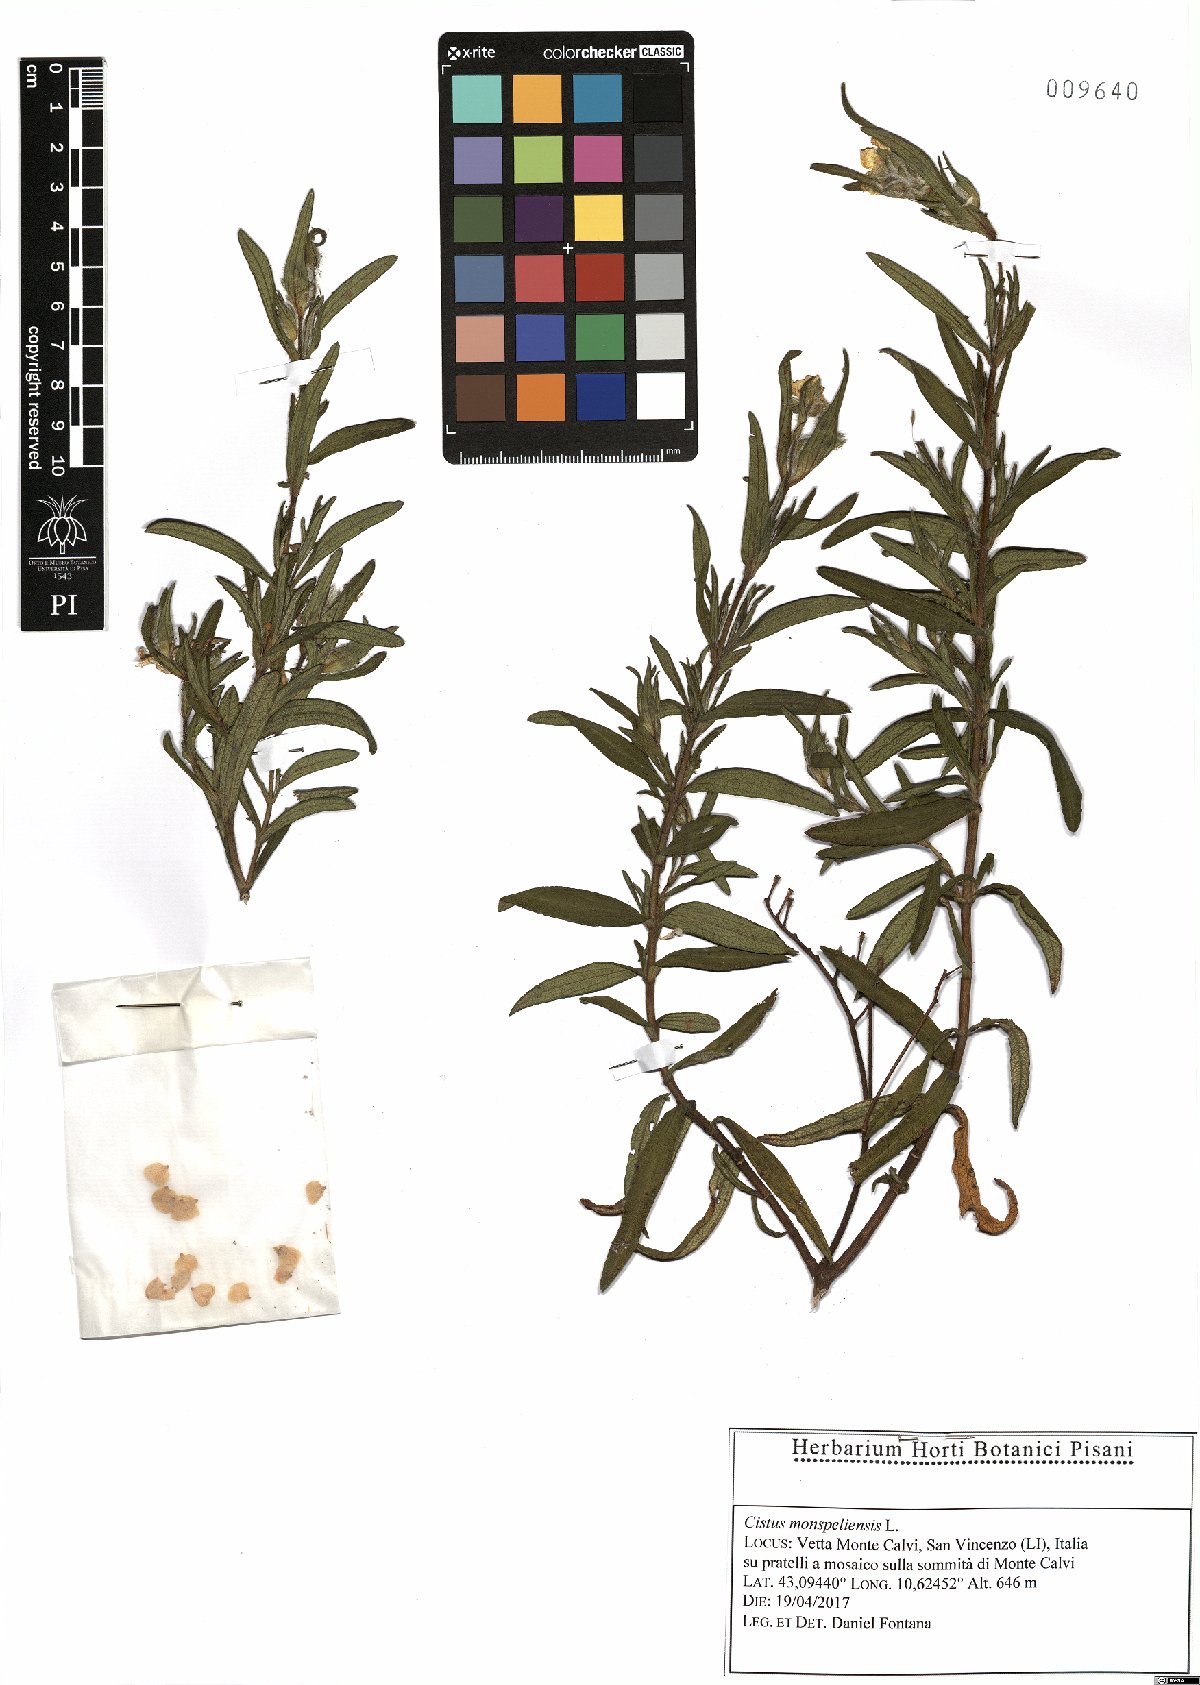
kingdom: Plantae
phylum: Tracheophyta
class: Magnoliopsida
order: Malvales
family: Cistaceae
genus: Cistus
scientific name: Cistus monspeliensis
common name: Montpelier cistus
